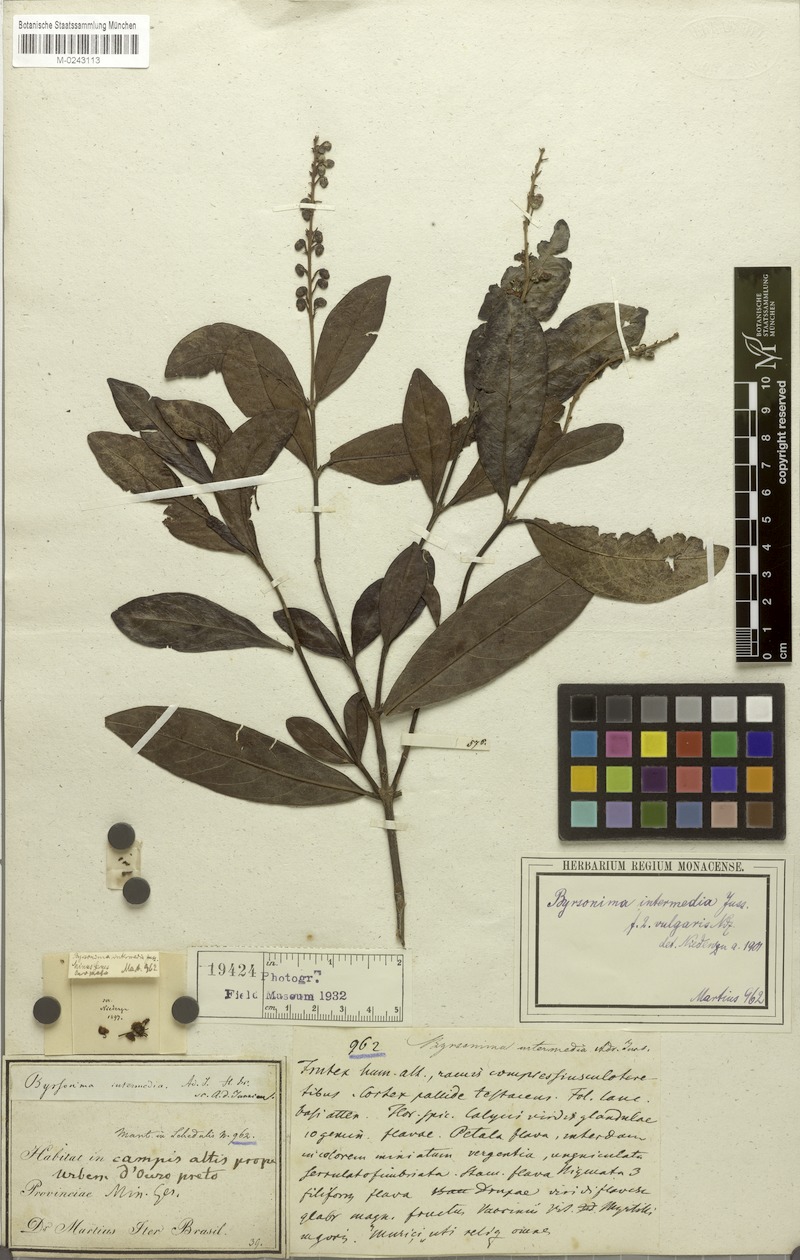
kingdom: Plantae
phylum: Tracheophyta
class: Magnoliopsida
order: Malpighiales
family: Malpighiaceae
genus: Byrsonima
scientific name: Byrsonima intermedia
